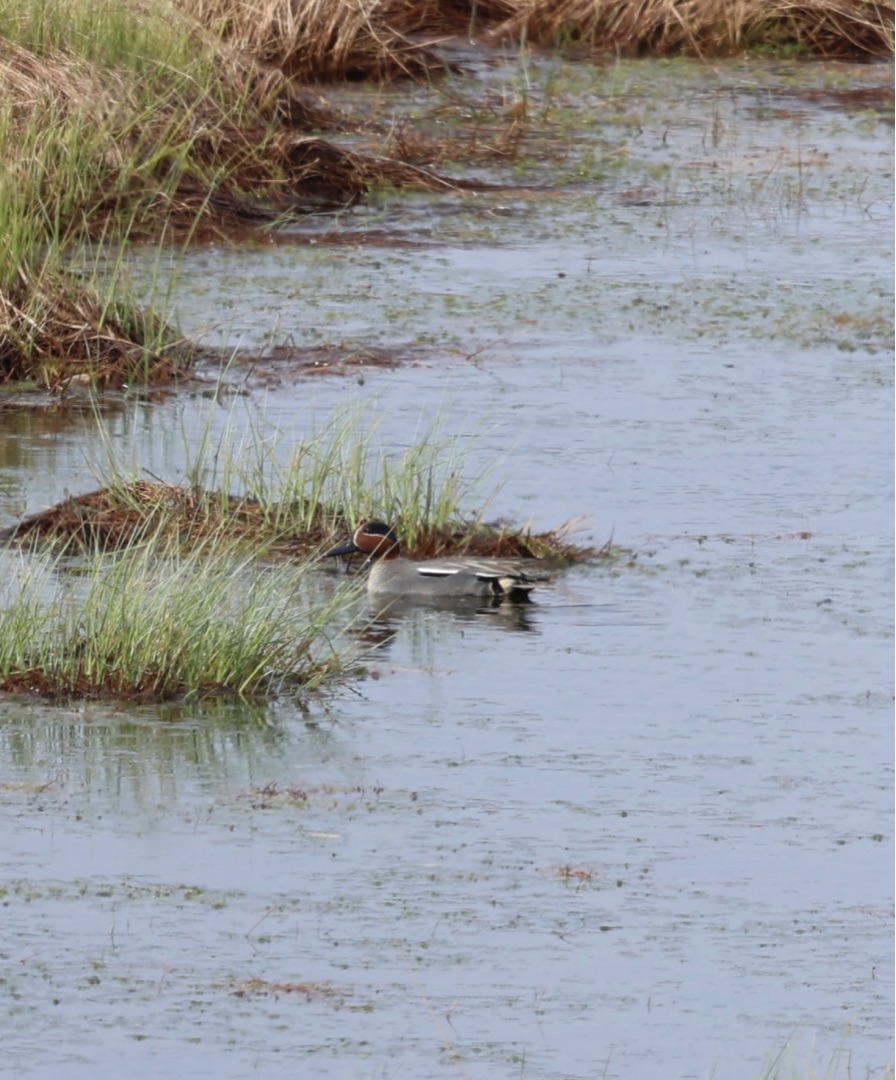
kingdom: Animalia
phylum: Chordata
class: Aves
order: Anseriformes
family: Anatidae
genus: Anas
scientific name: Anas crecca
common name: Krikand
